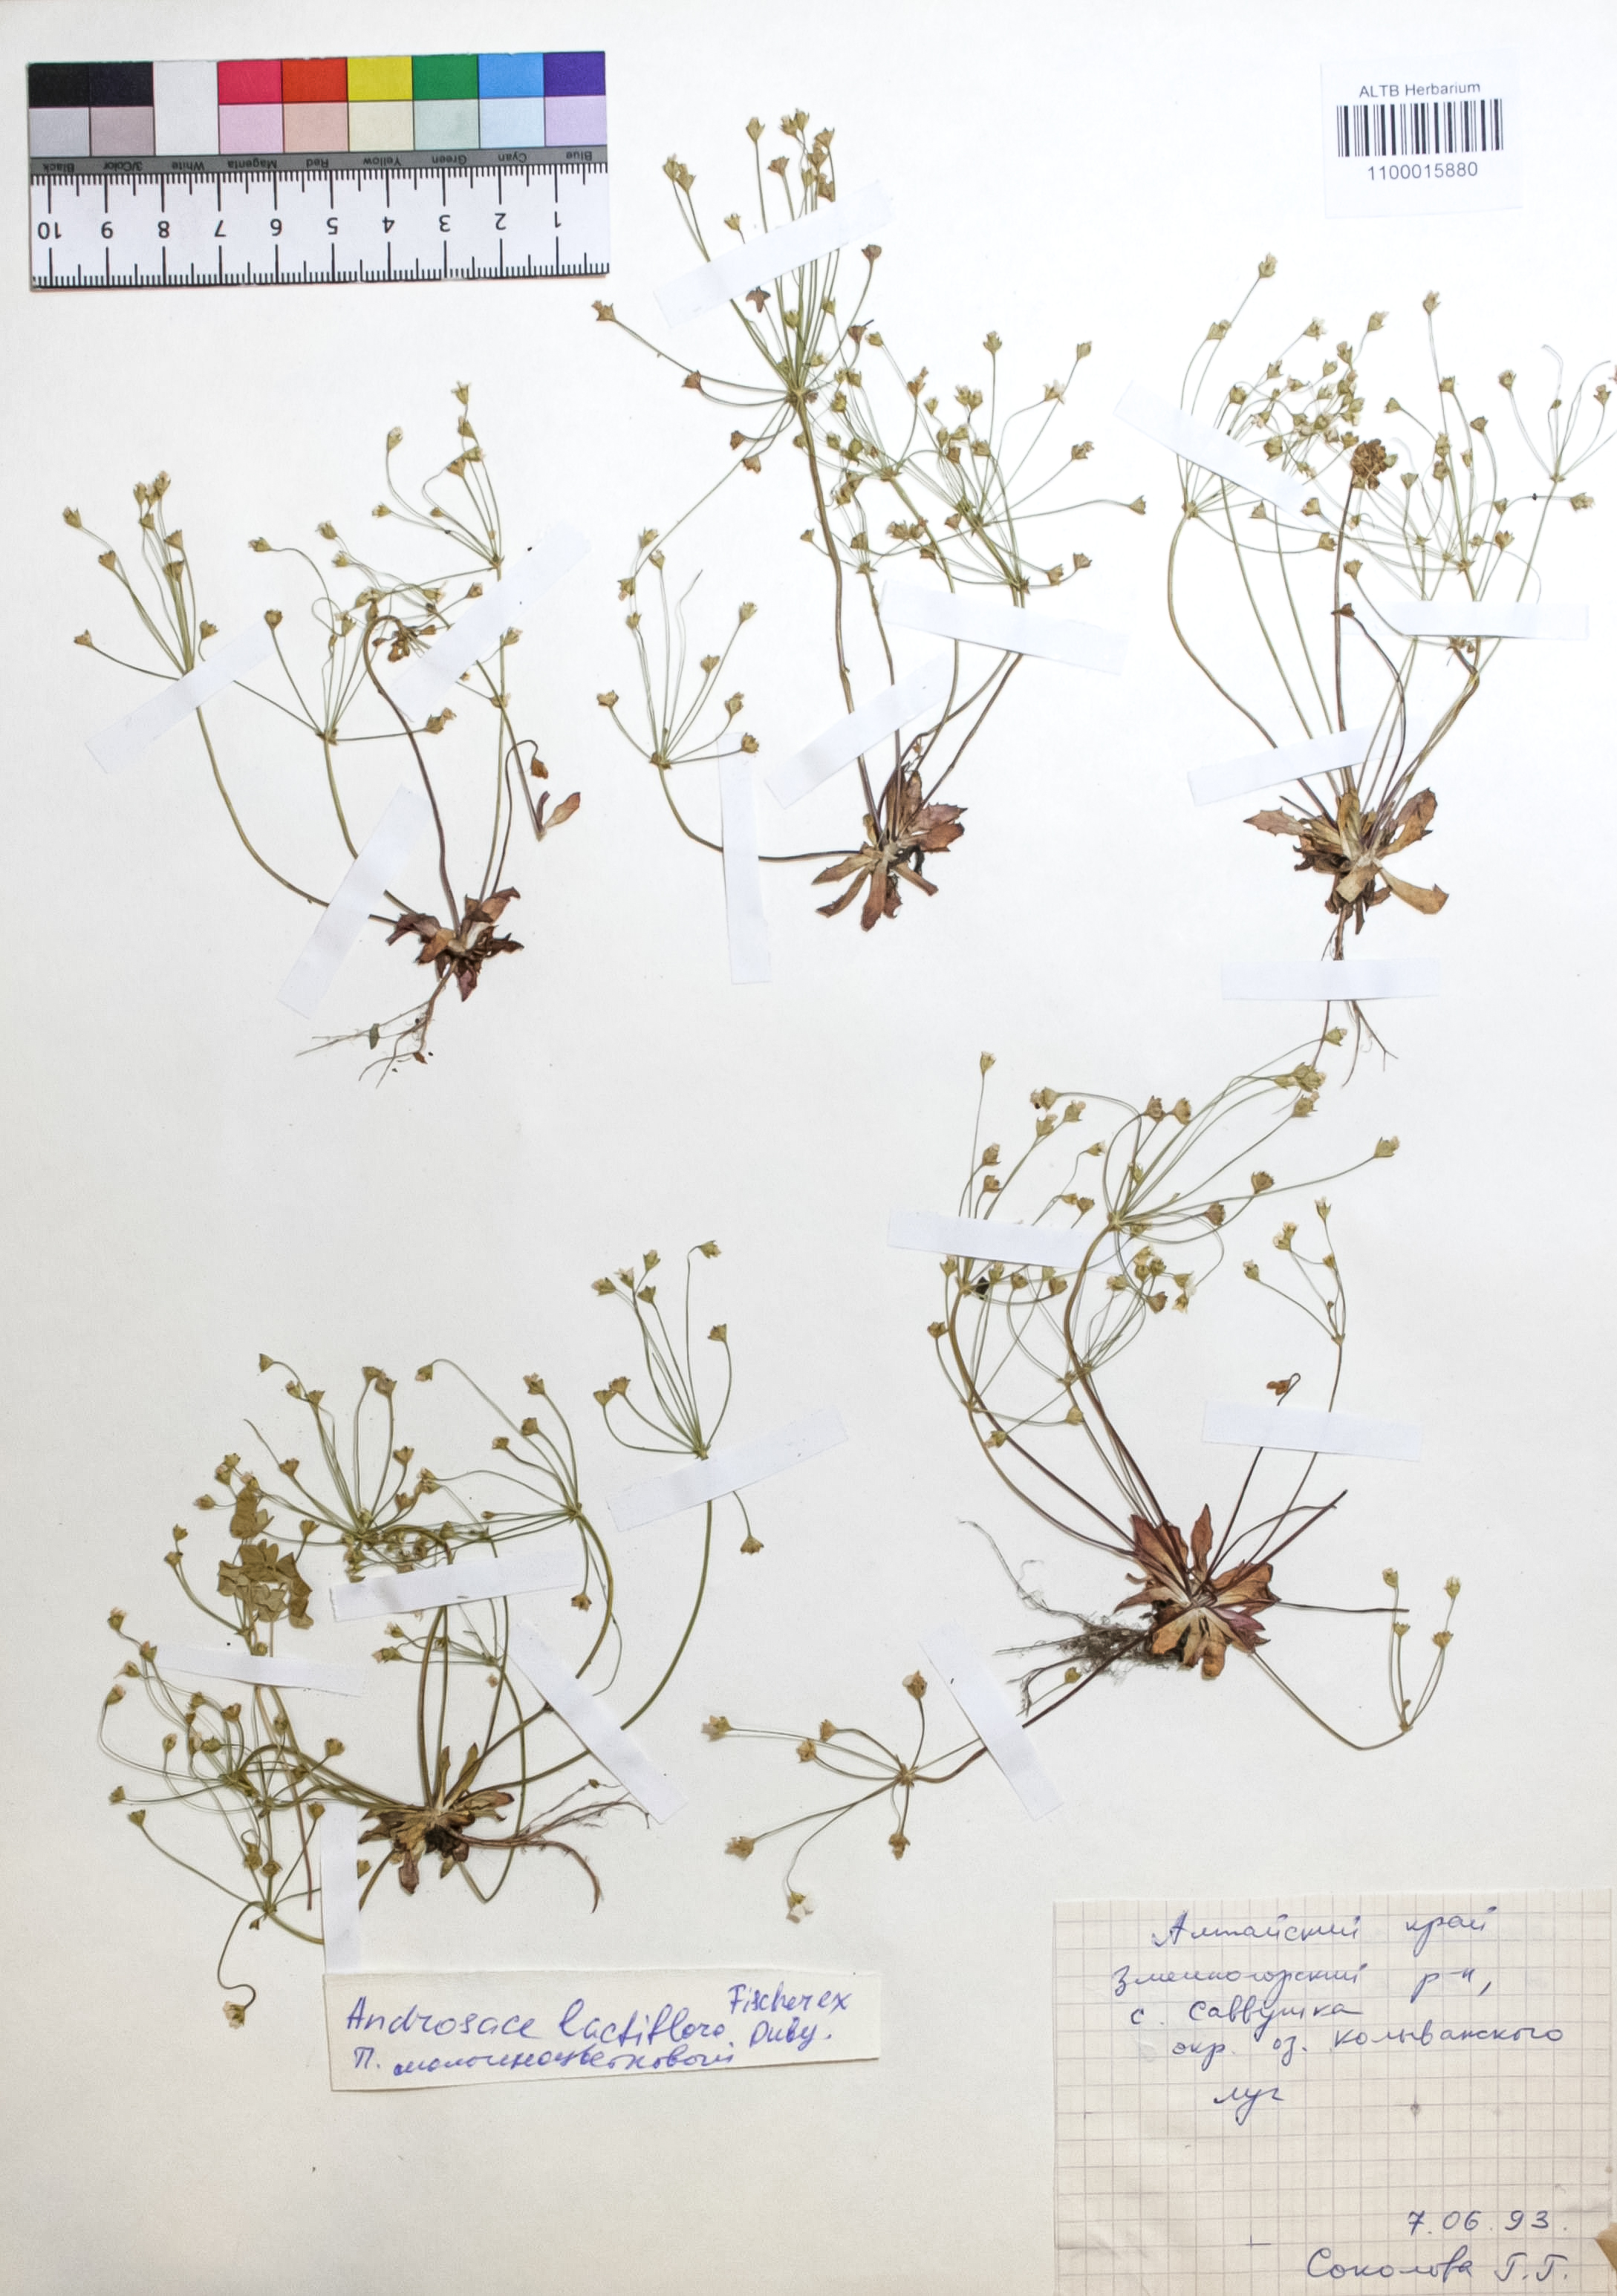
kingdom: Plantae
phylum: Tracheophyta
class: Magnoliopsida
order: Ericales
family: Primulaceae
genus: Androsace
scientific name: Androsace lactiflora
